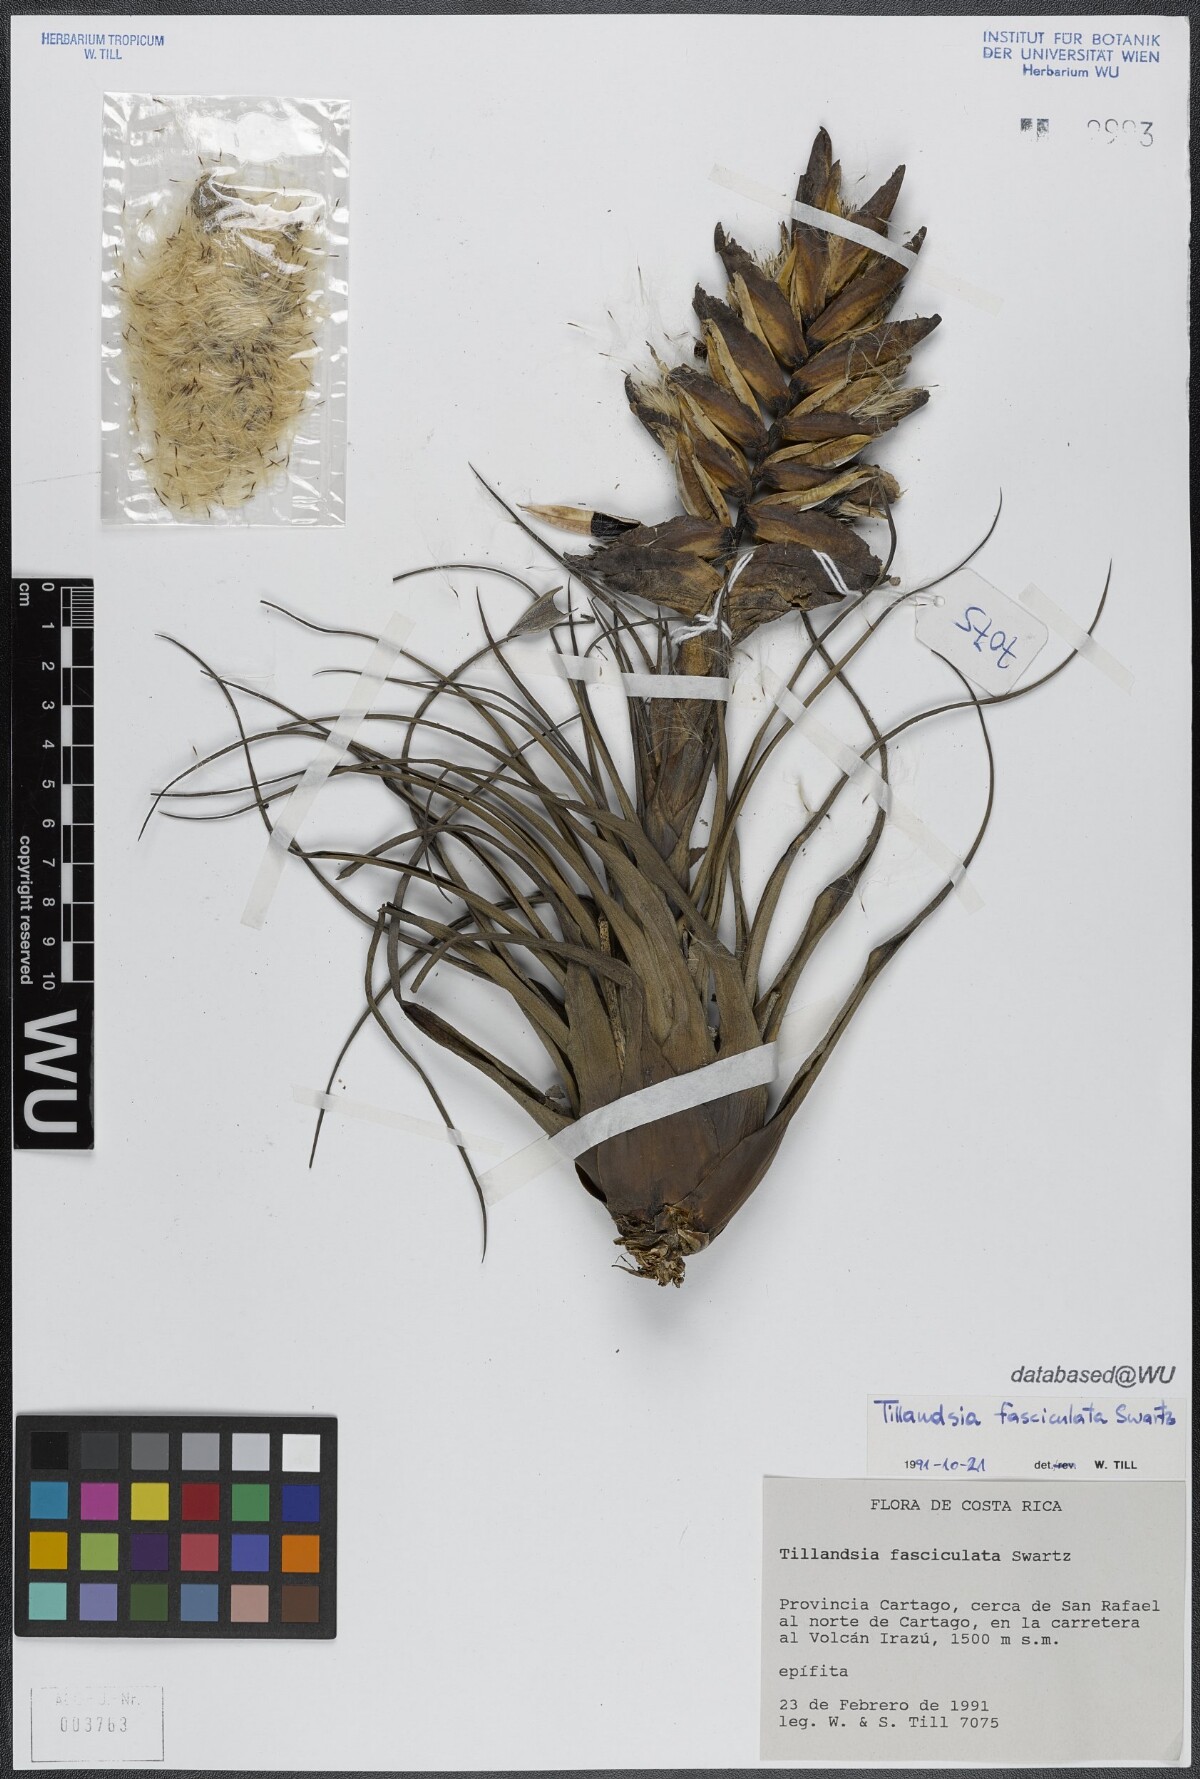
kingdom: Plantae
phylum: Tracheophyta
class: Liliopsida
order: Poales
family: Bromeliaceae
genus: Tillandsia
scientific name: Tillandsia fasciculata
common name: Giant airplant
